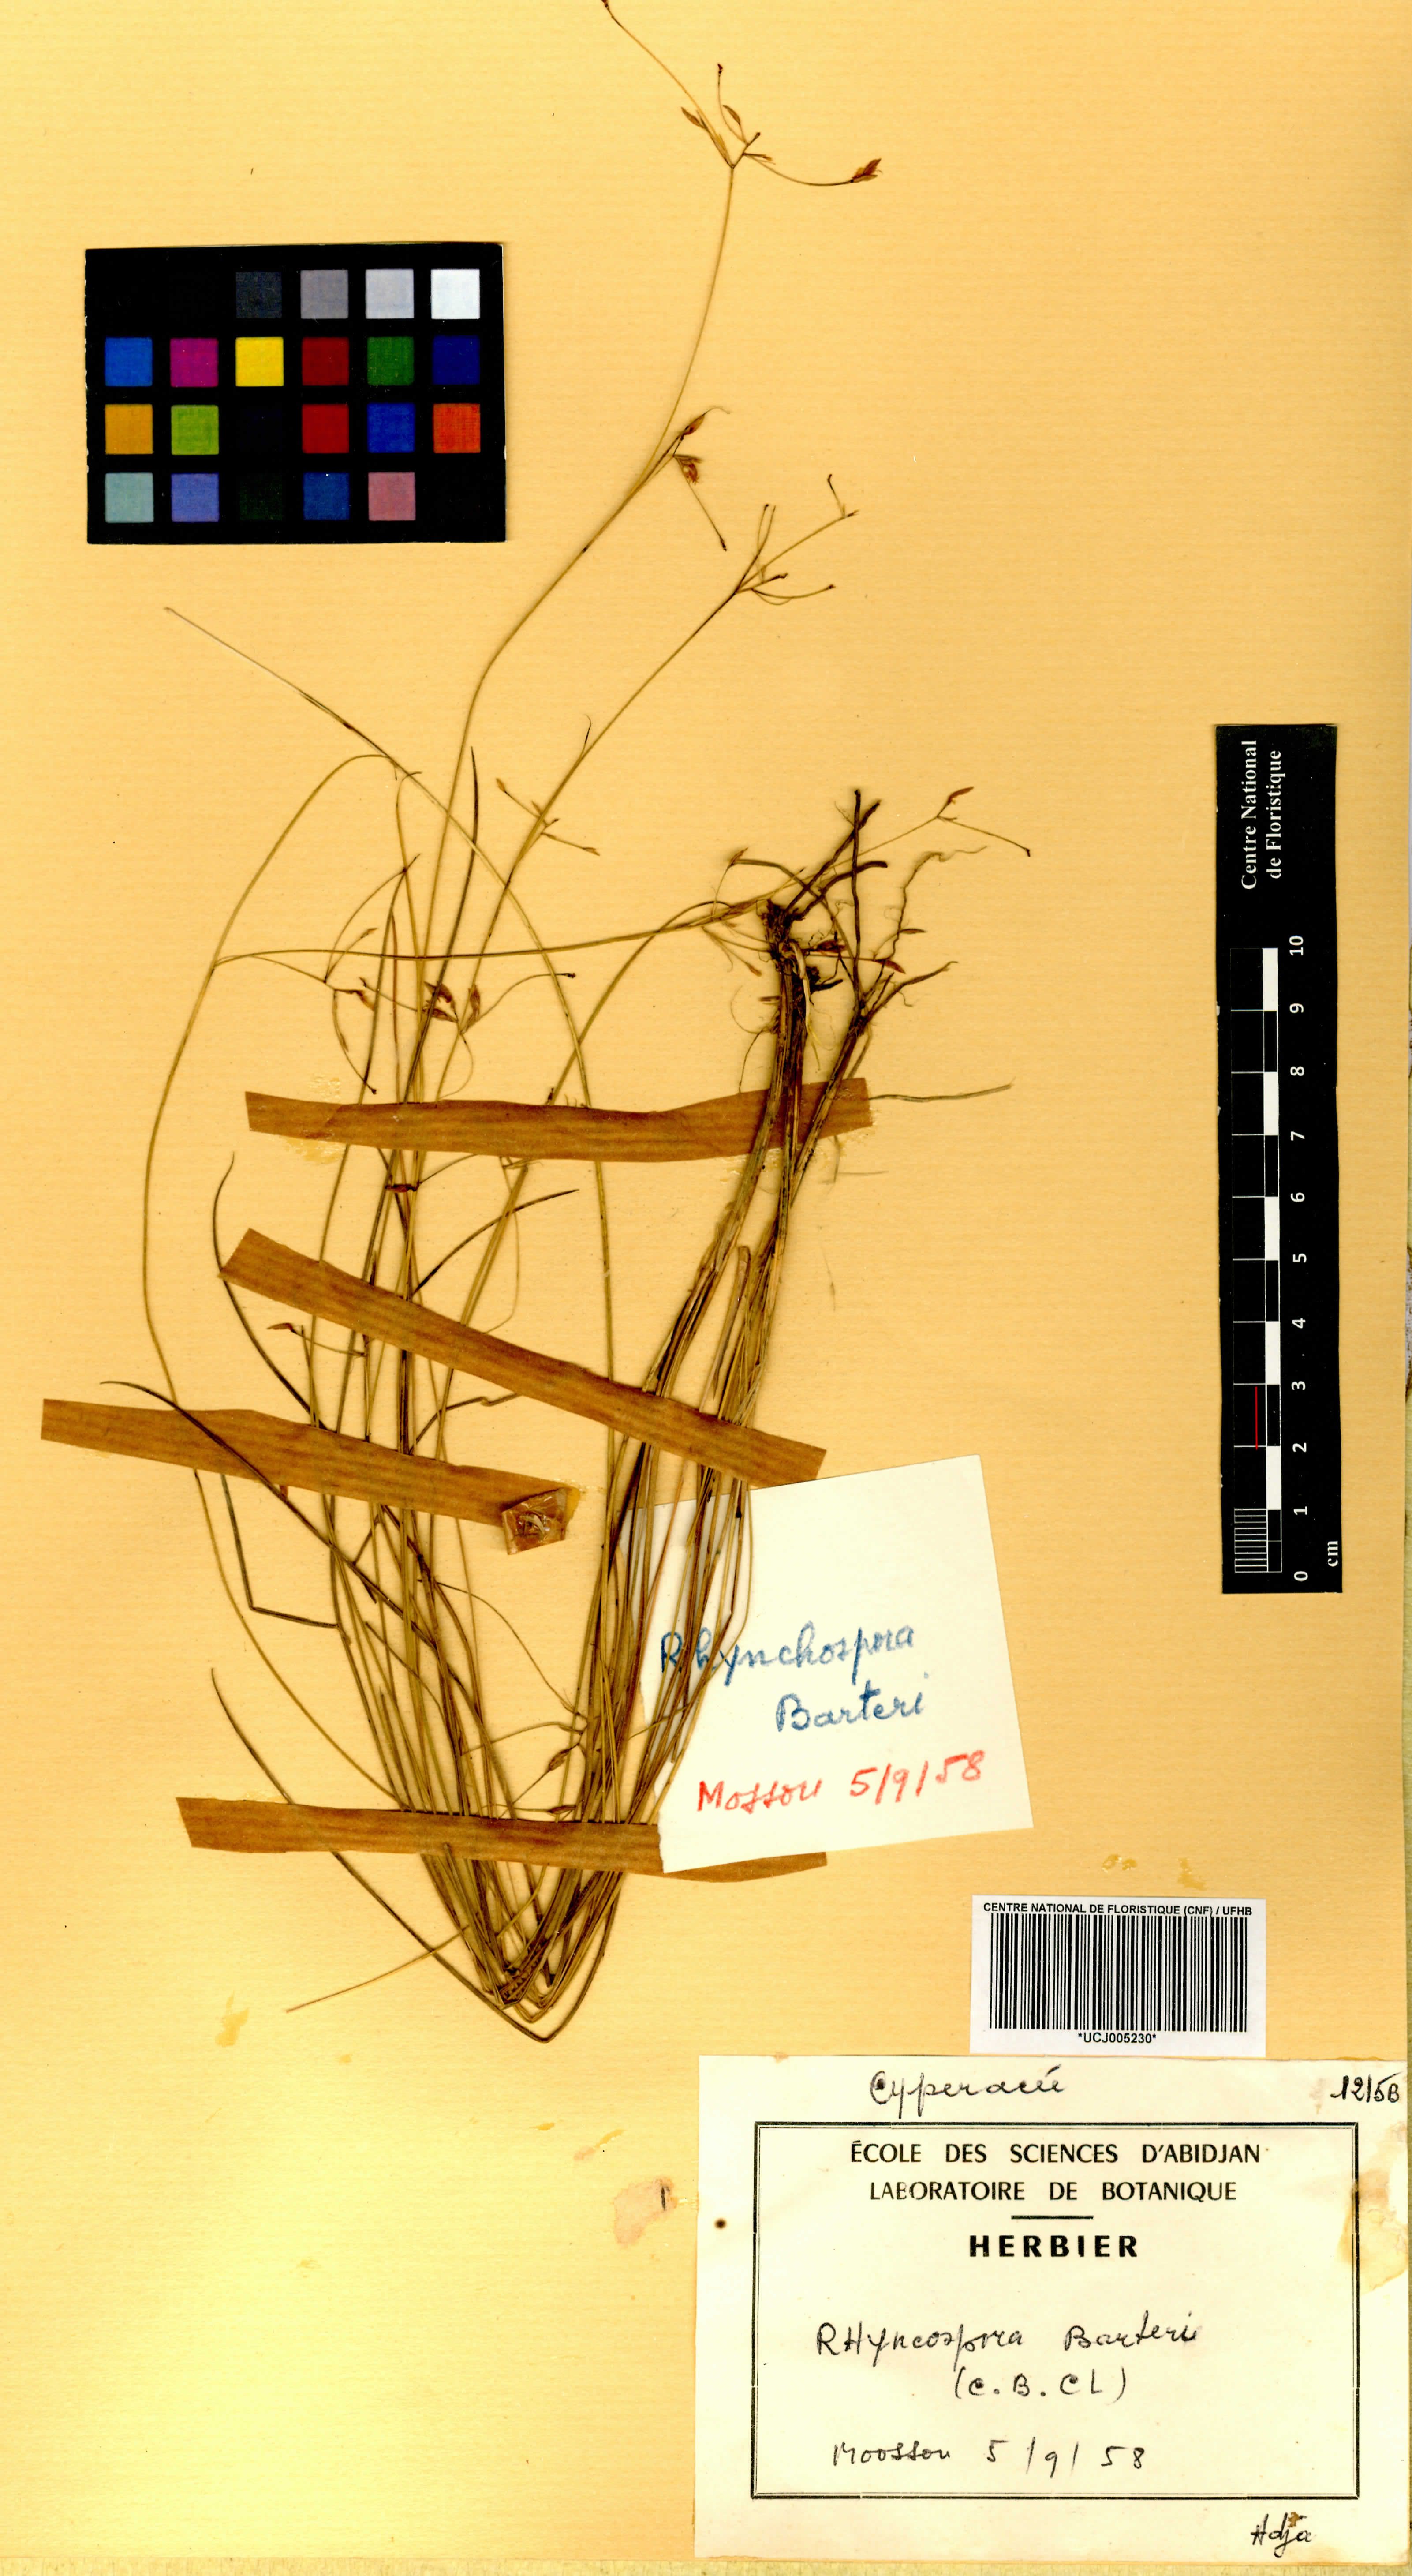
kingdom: Plantae
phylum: Tracheophyta
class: Liliopsida
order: Poales
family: Cyperaceae
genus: Rhynchospora
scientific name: Rhynchospora barteri
